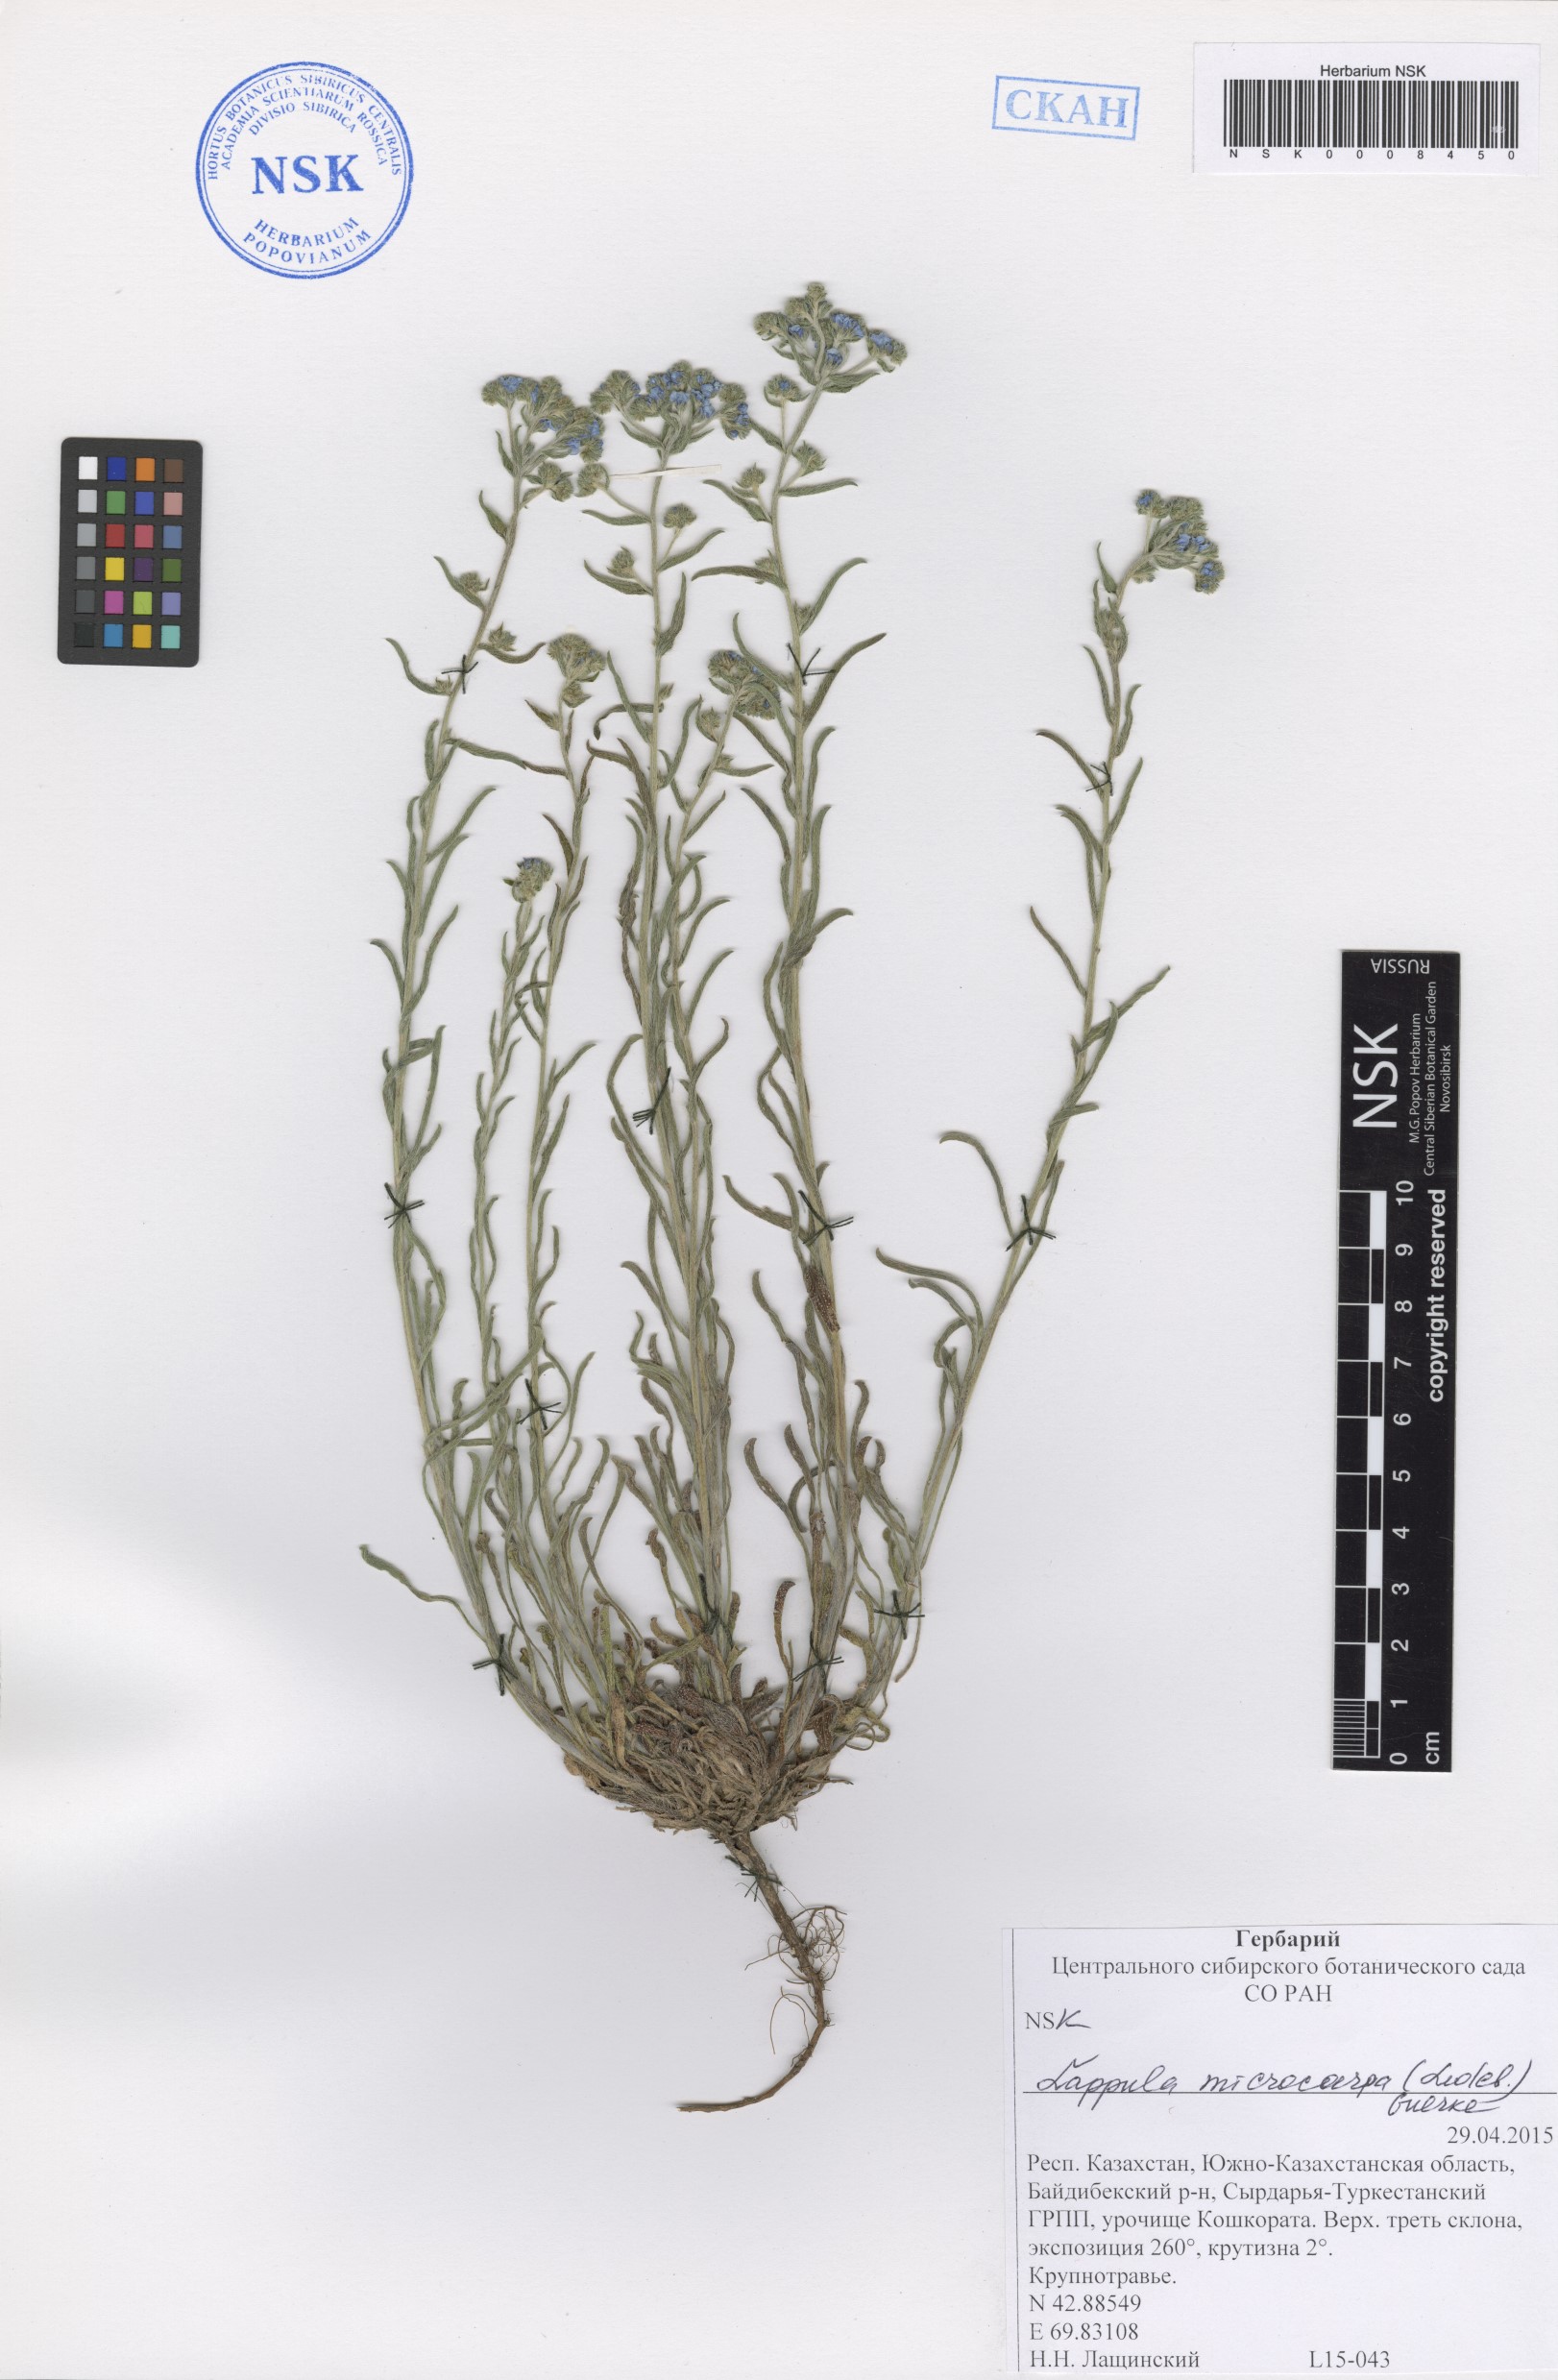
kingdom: Plantae
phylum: Tracheophyta
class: Magnoliopsida
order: Boraginales
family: Boraginaceae
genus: Lappula
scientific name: Lappula microcarpa
